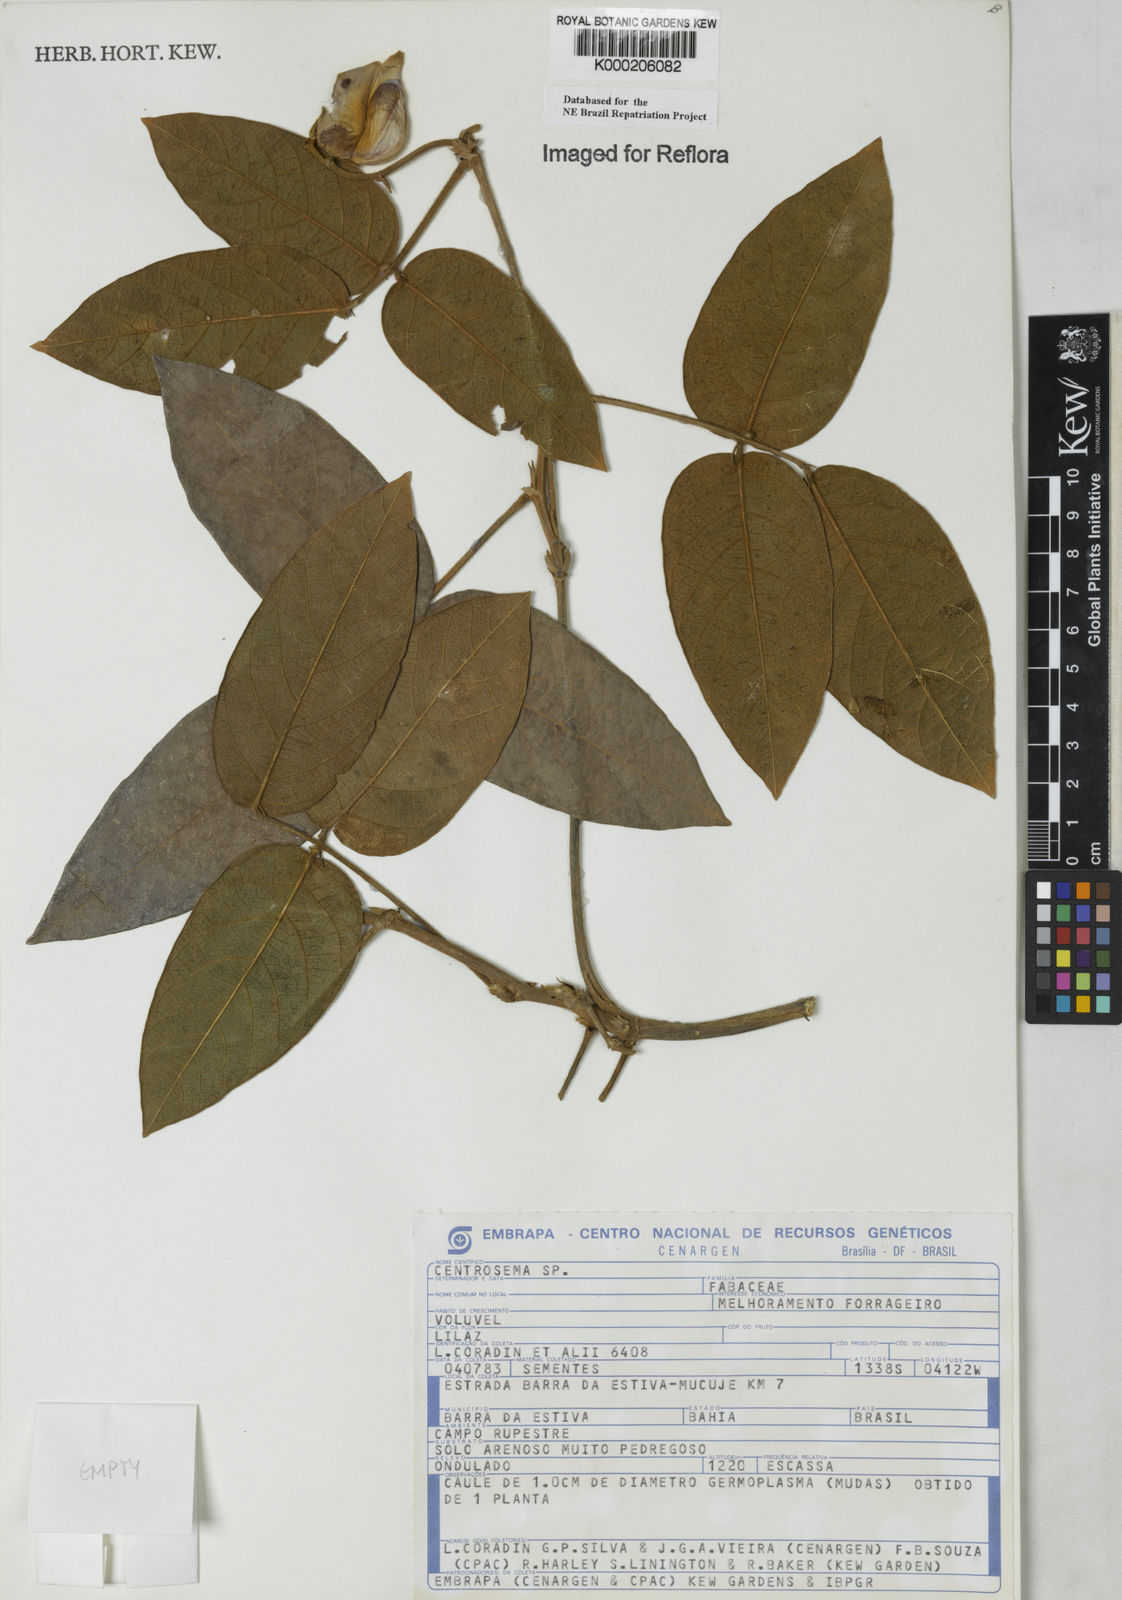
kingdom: Plantae
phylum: Tracheophyta
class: Magnoliopsida
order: Fabales
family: Fabaceae
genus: Centrosema
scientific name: Centrosema
